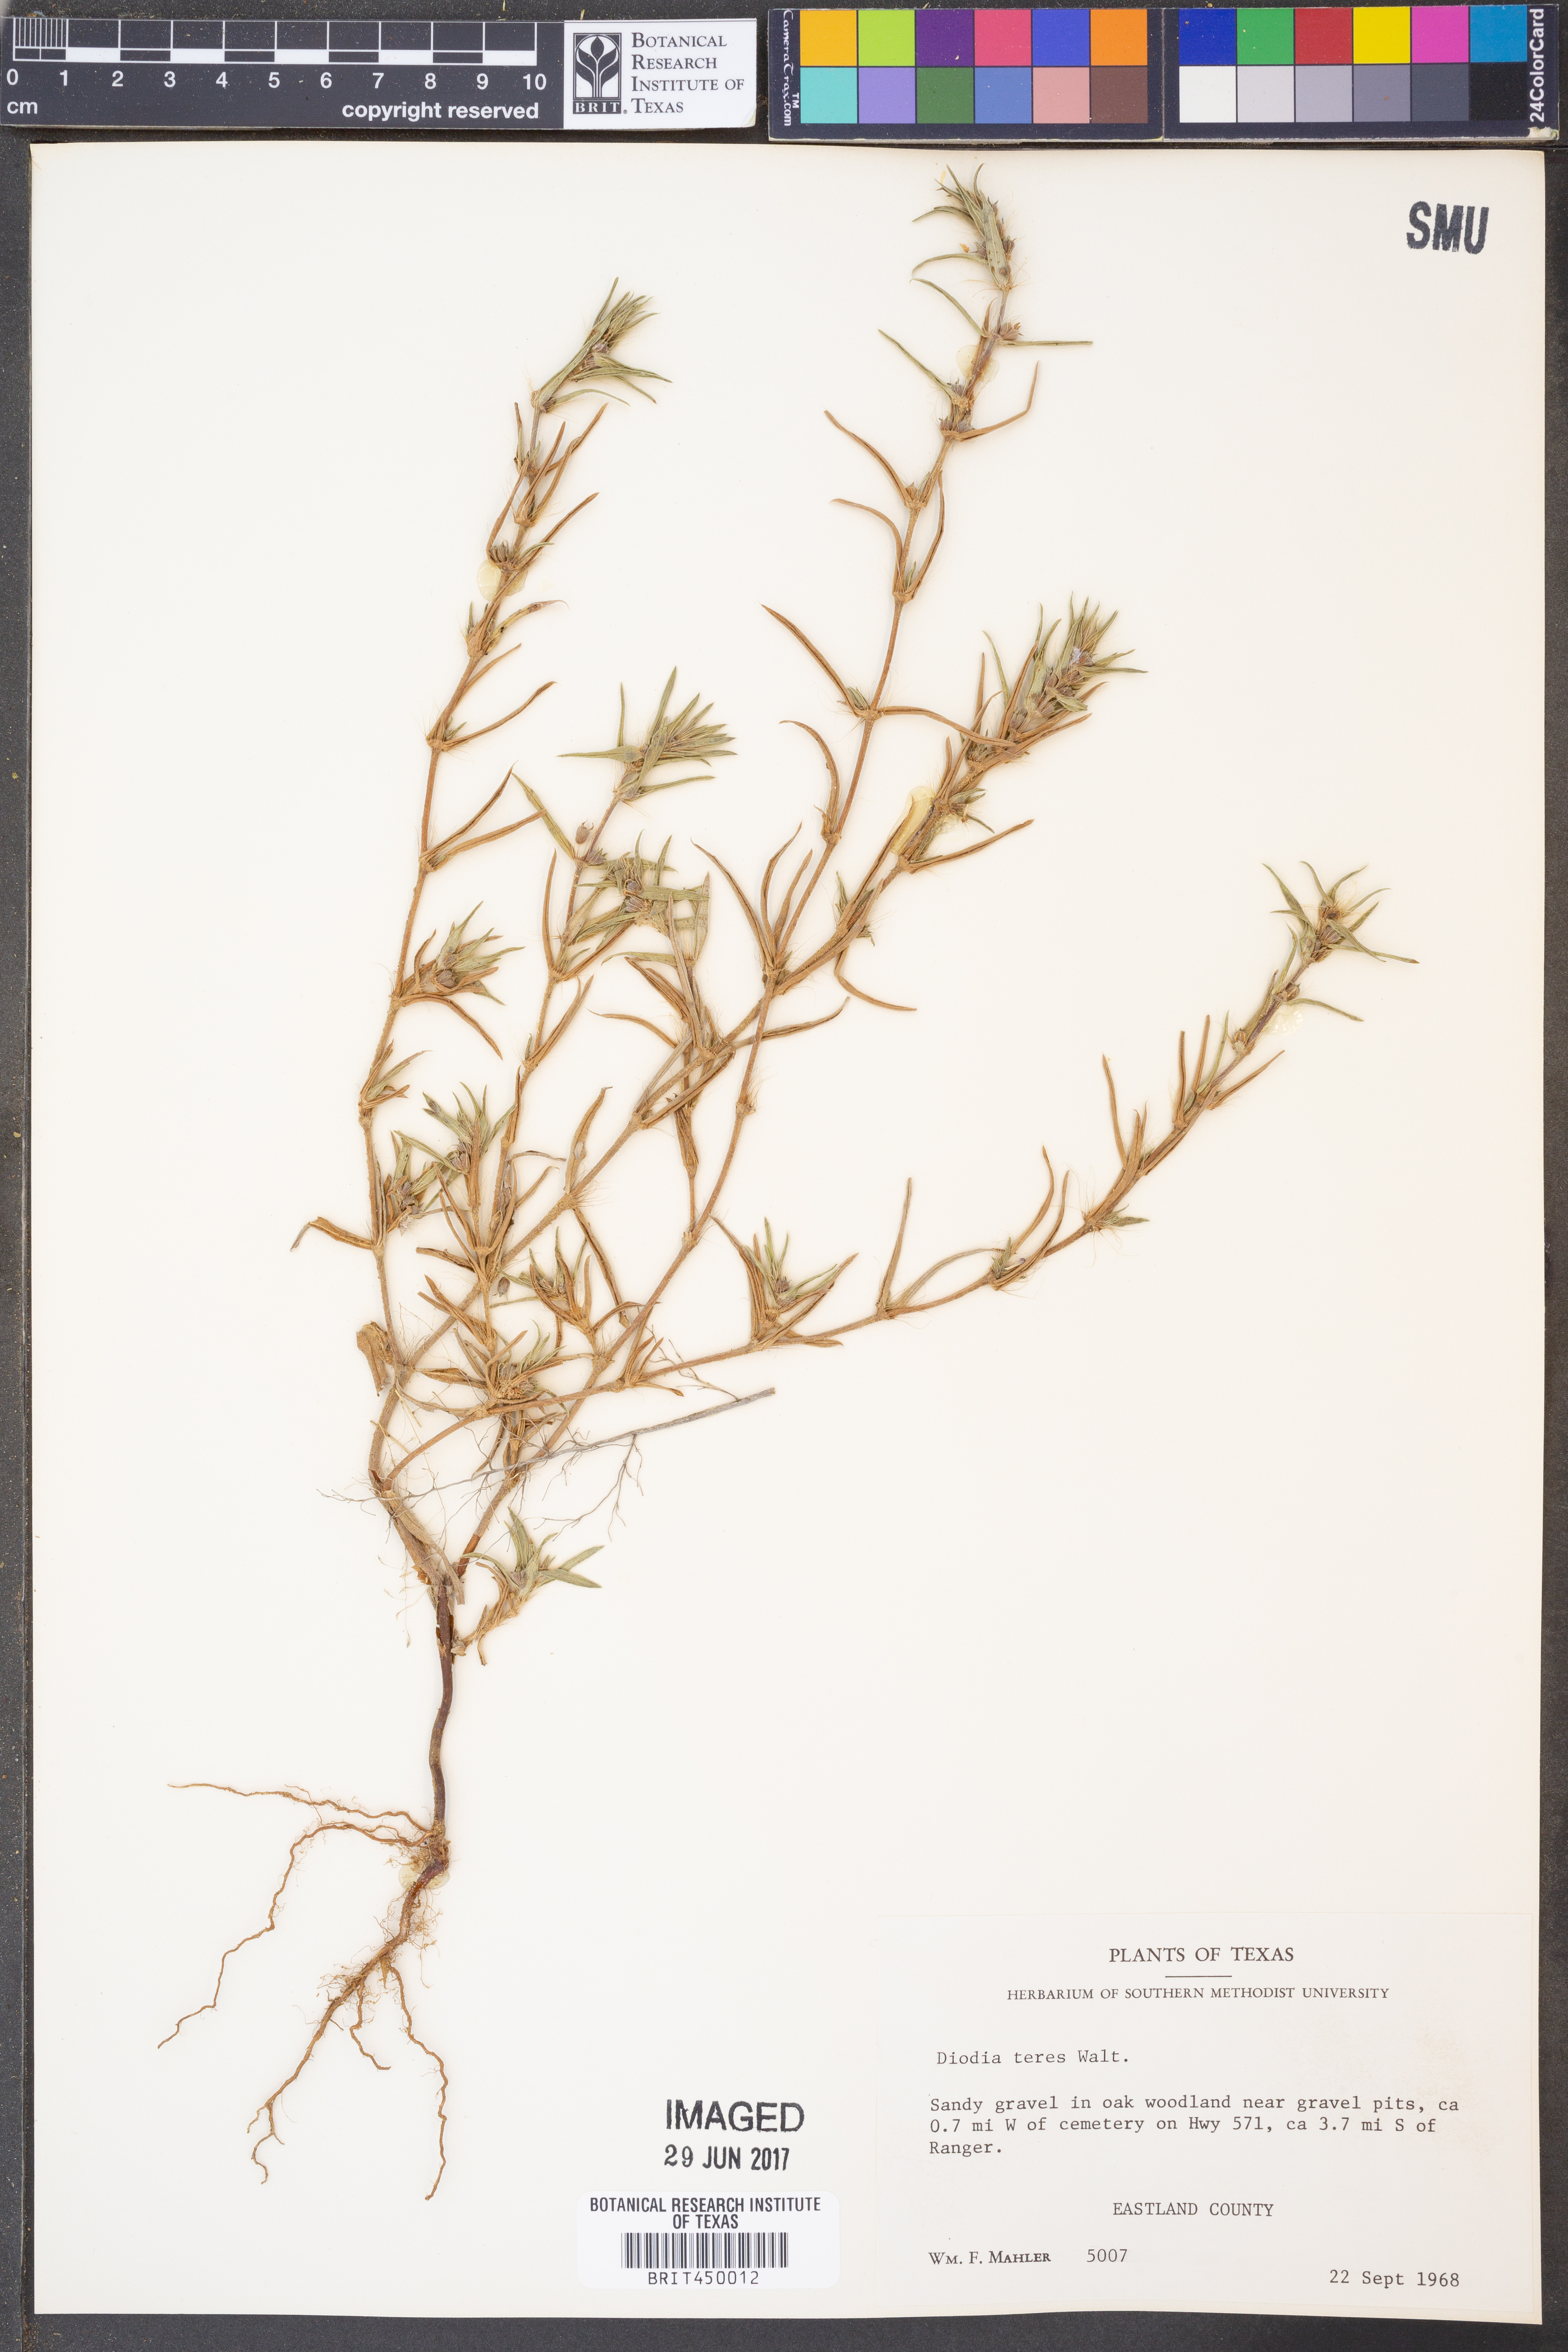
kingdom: Plantae
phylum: Tracheophyta
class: Magnoliopsida
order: Gentianales
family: Rubiaceae
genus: Hexasepalum
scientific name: Hexasepalum teres
